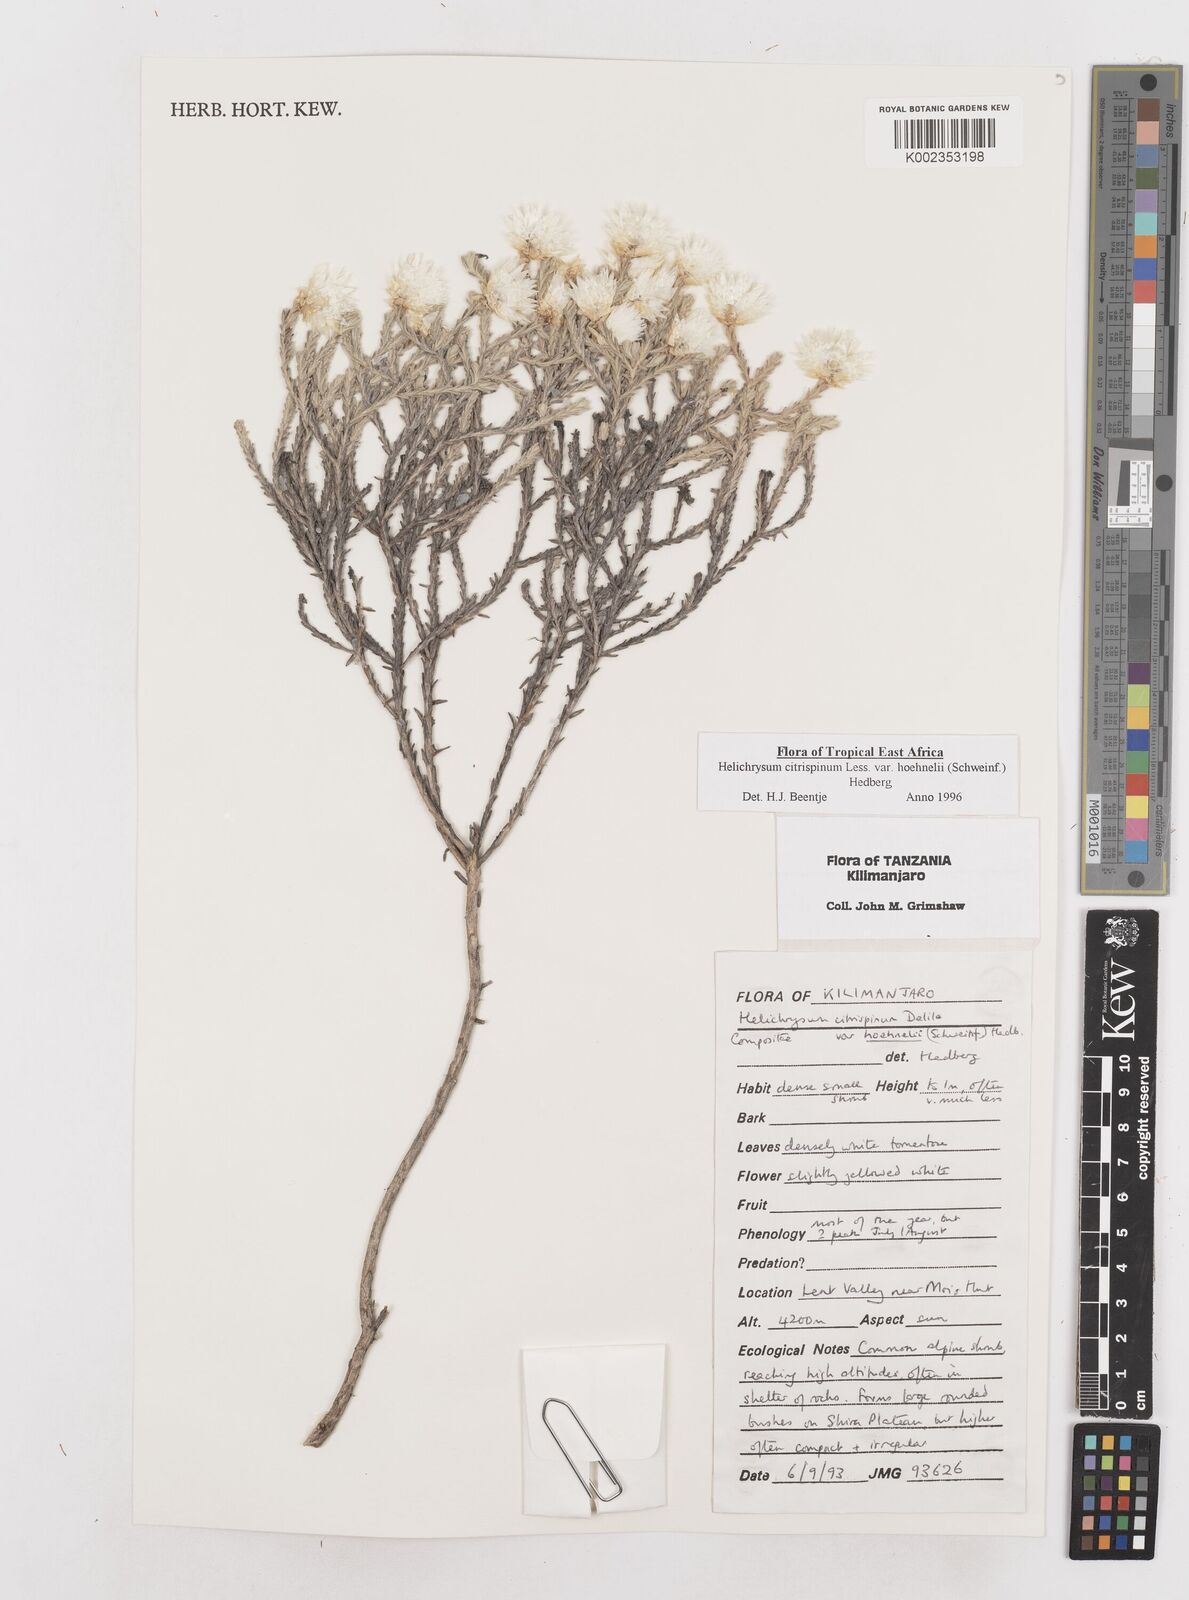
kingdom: Plantae
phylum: Tracheophyta
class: Magnoliopsida
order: Asterales
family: Asteraceae
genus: Helichrysum
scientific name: Helichrysum citrispinum
